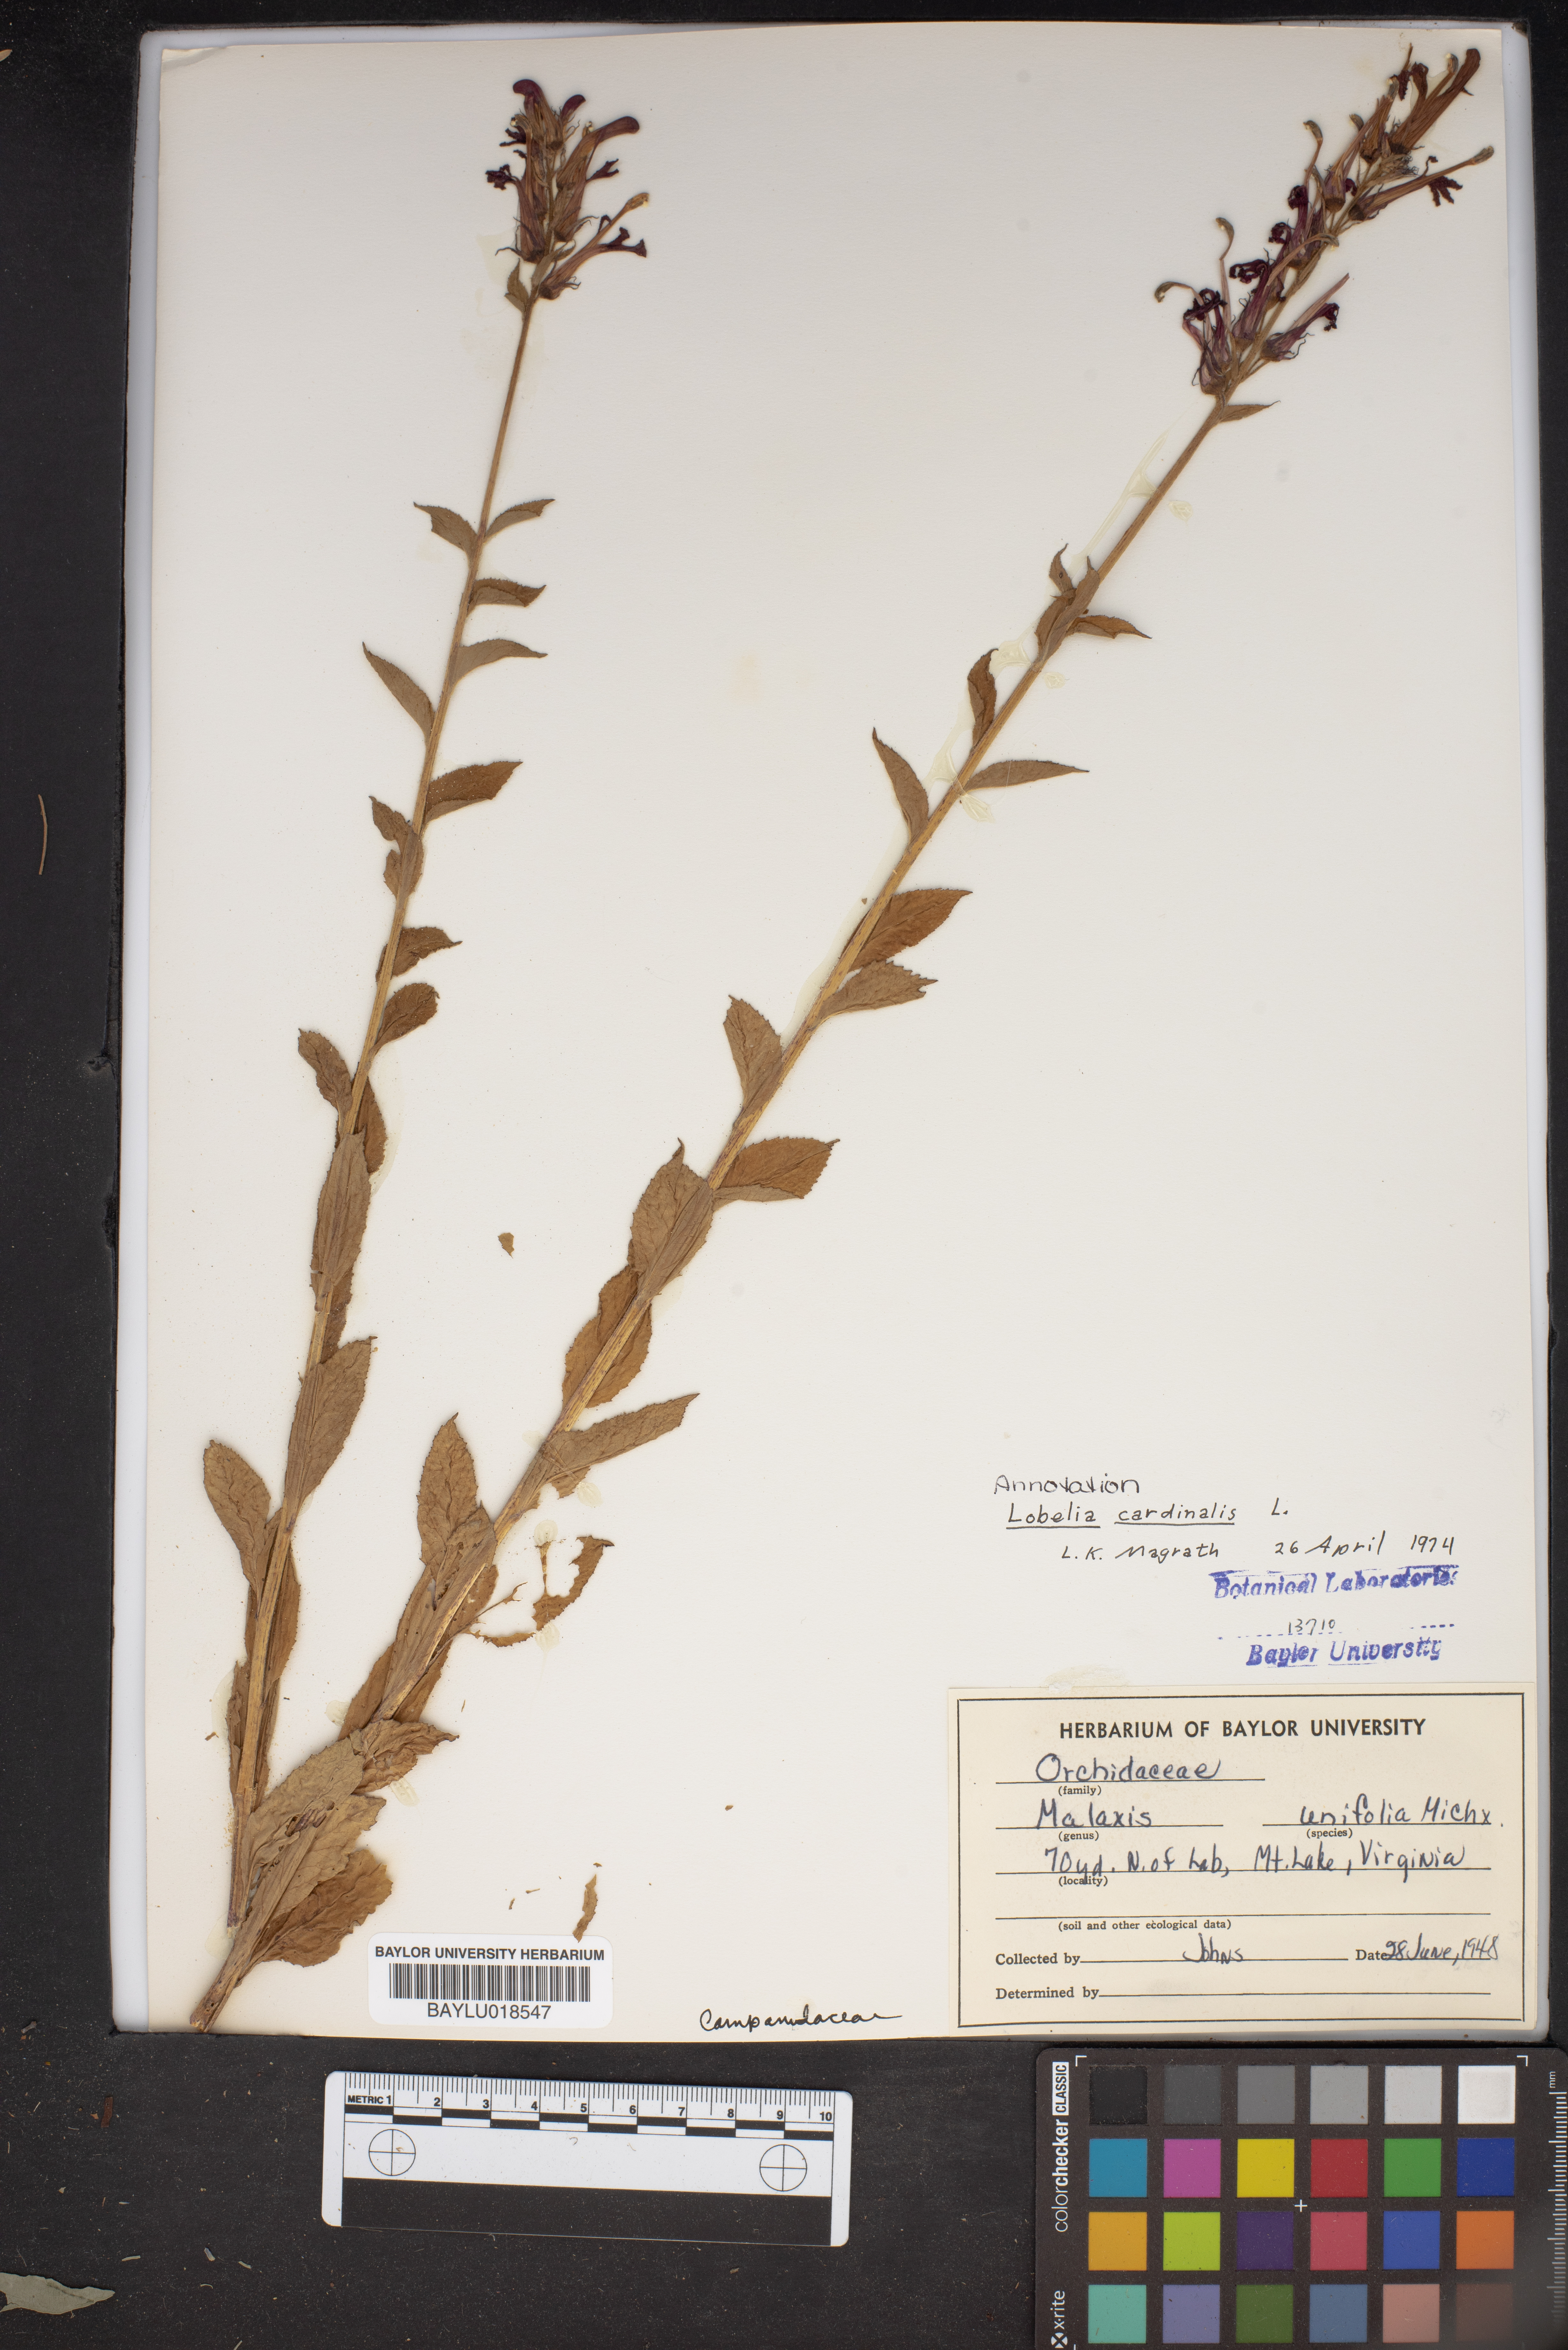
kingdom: Plantae
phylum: Tracheophyta
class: Magnoliopsida
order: Asterales
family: Campanulaceae
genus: Lobelia
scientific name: Lobelia cardinalis
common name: Cardinal flower
